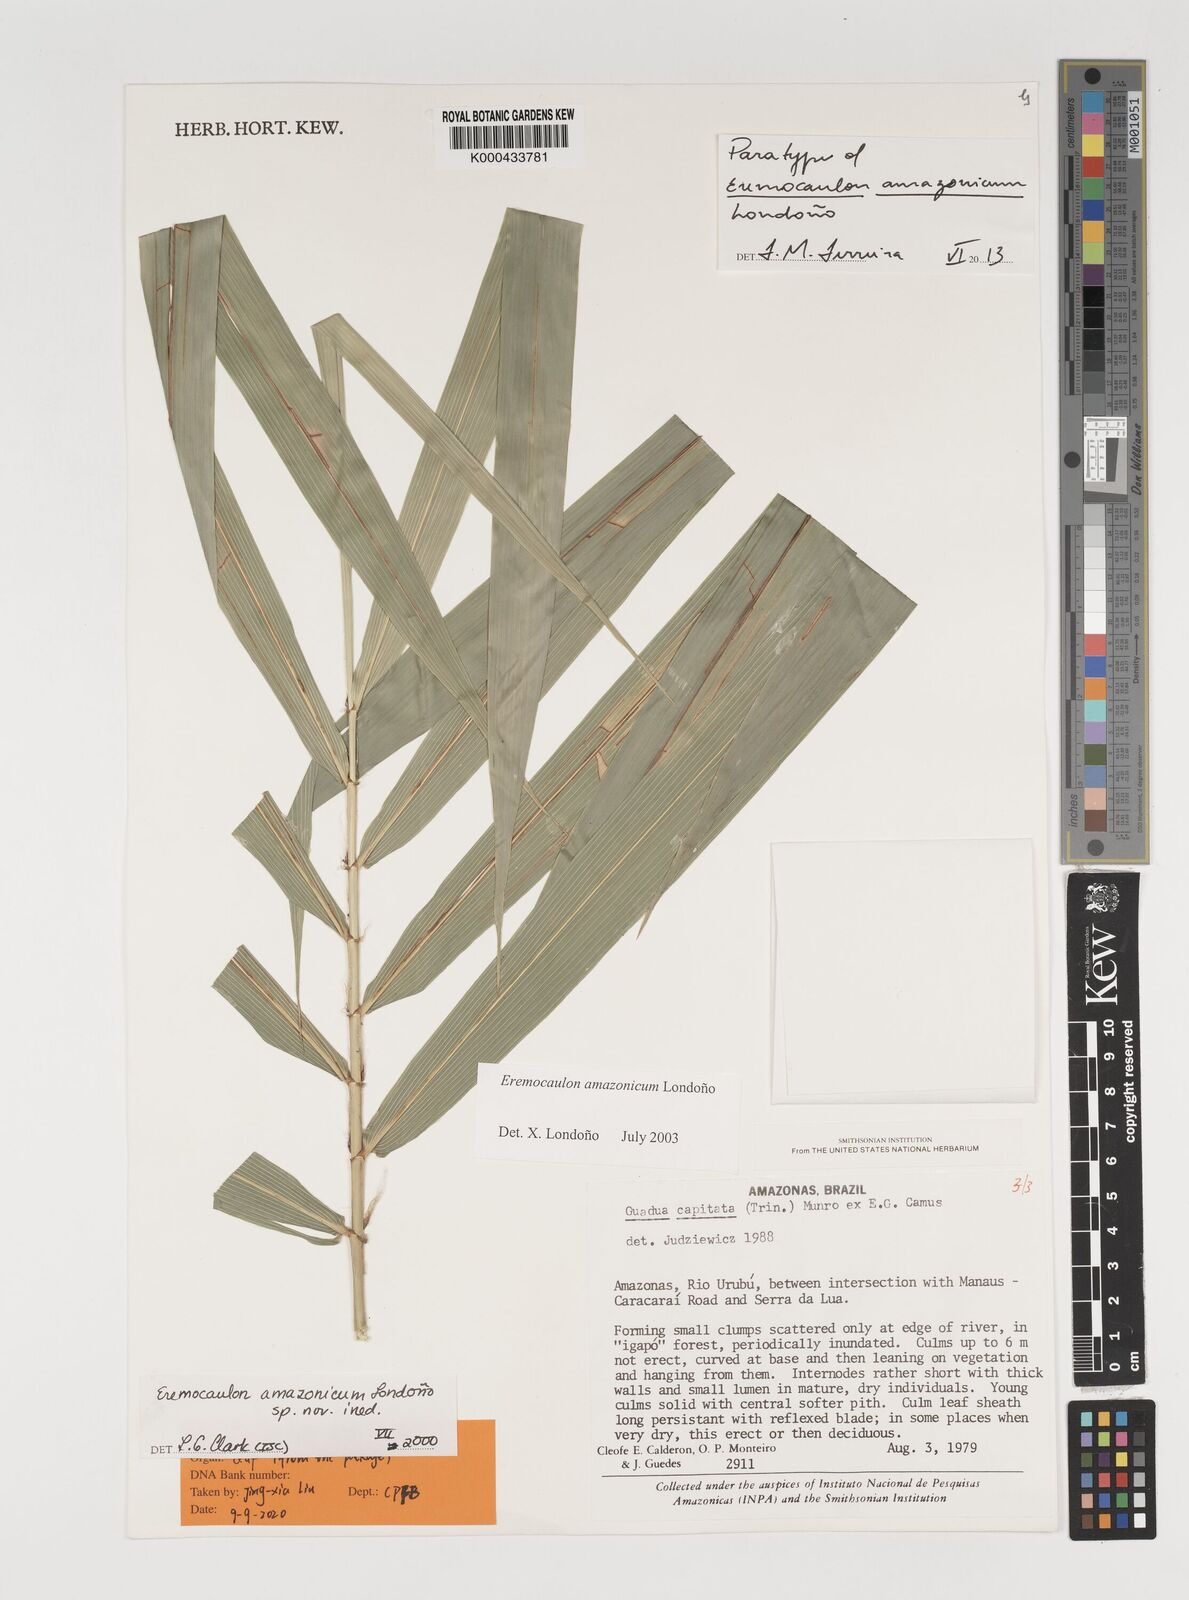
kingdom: Plantae
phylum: Tracheophyta
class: Liliopsida
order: Poales
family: Poaceae
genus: Eremocaulon
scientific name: Eremocaulon
